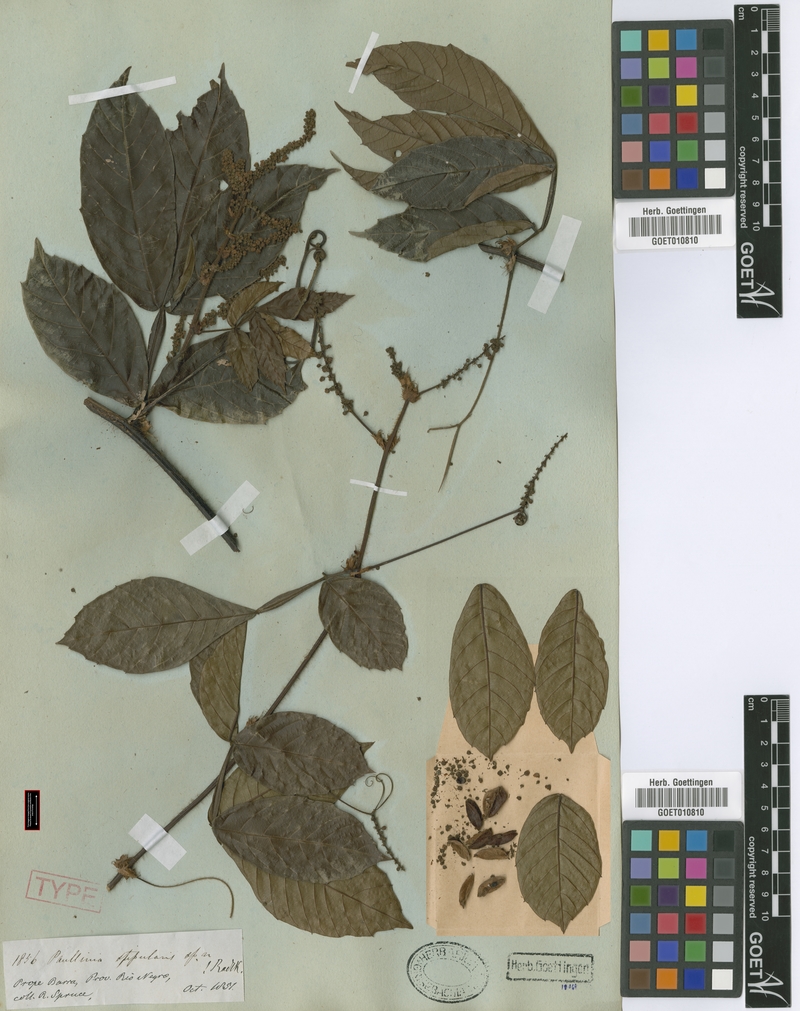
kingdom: Plantae
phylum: Tracheophyta
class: Magnoliopsida
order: Sapindales
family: Sapindaceae
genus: Paullinia
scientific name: Paullinia stipularis
